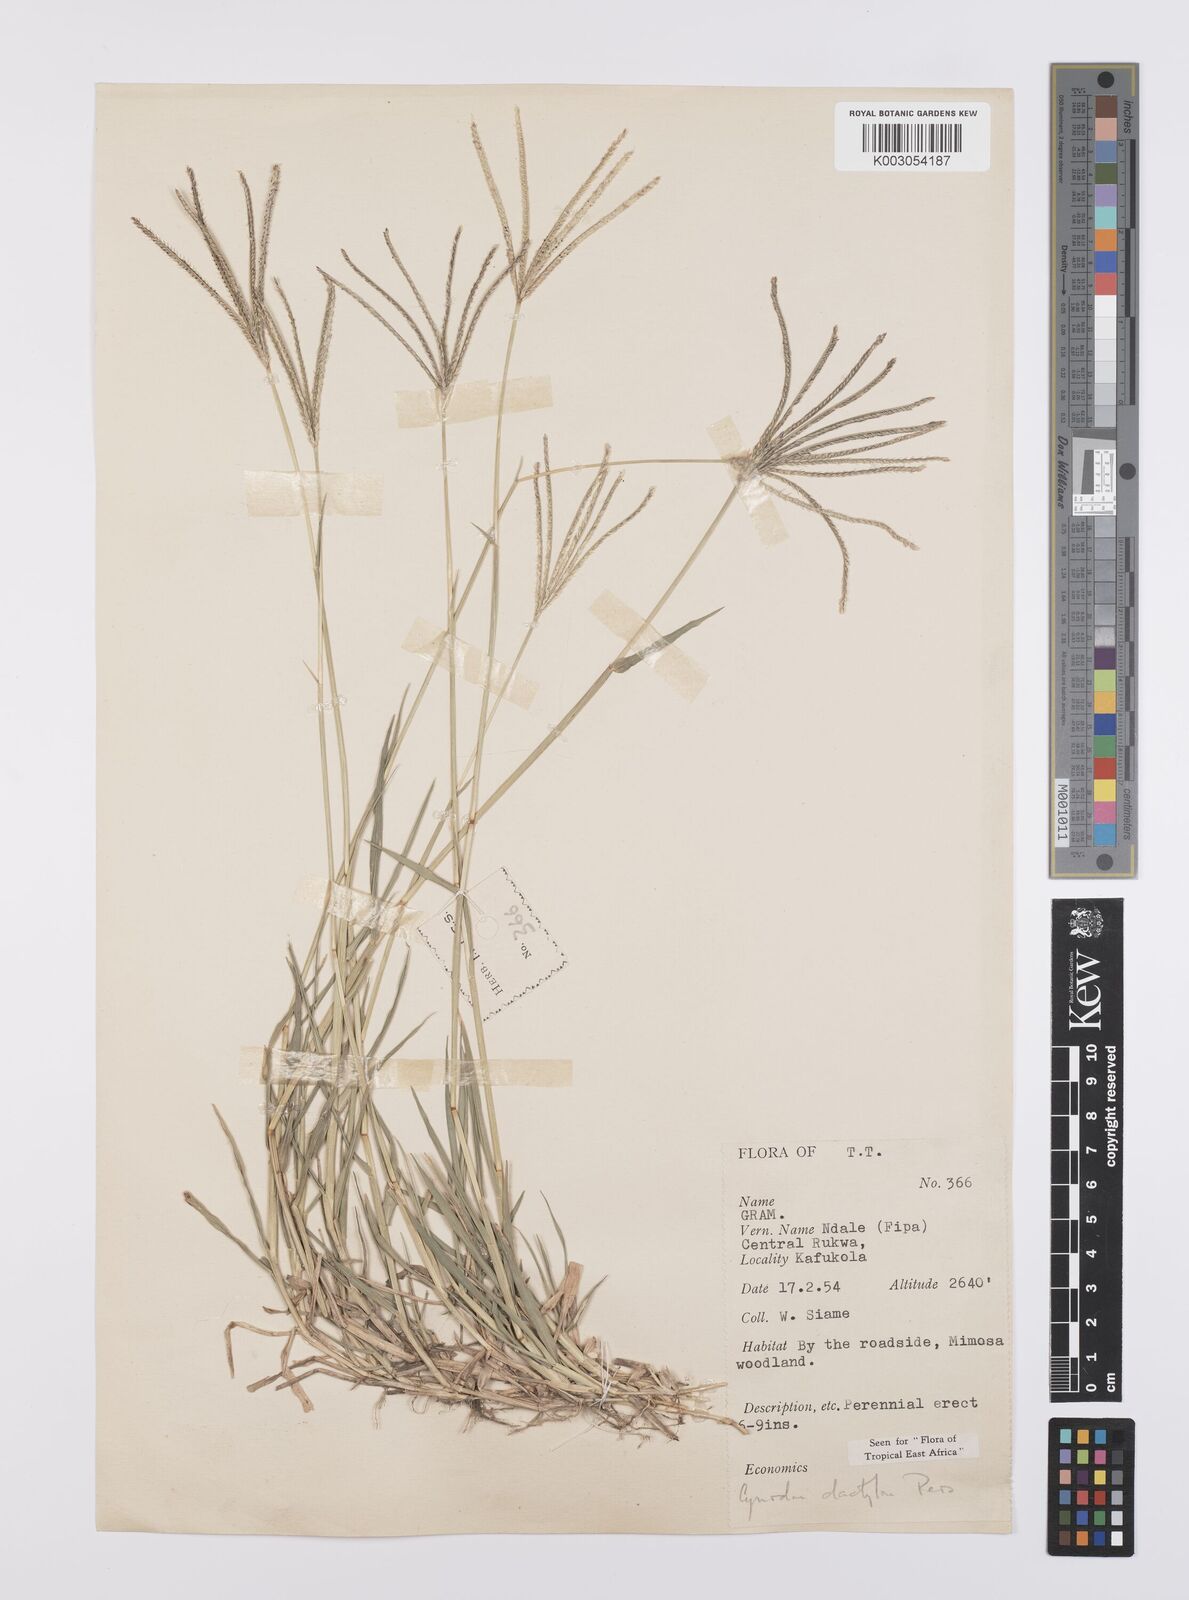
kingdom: Plantae
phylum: Tracheophyta
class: Liliopsida
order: Poales
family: Poaceae
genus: Cynodon
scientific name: Cynodon dactylon
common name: Bermuda grass
